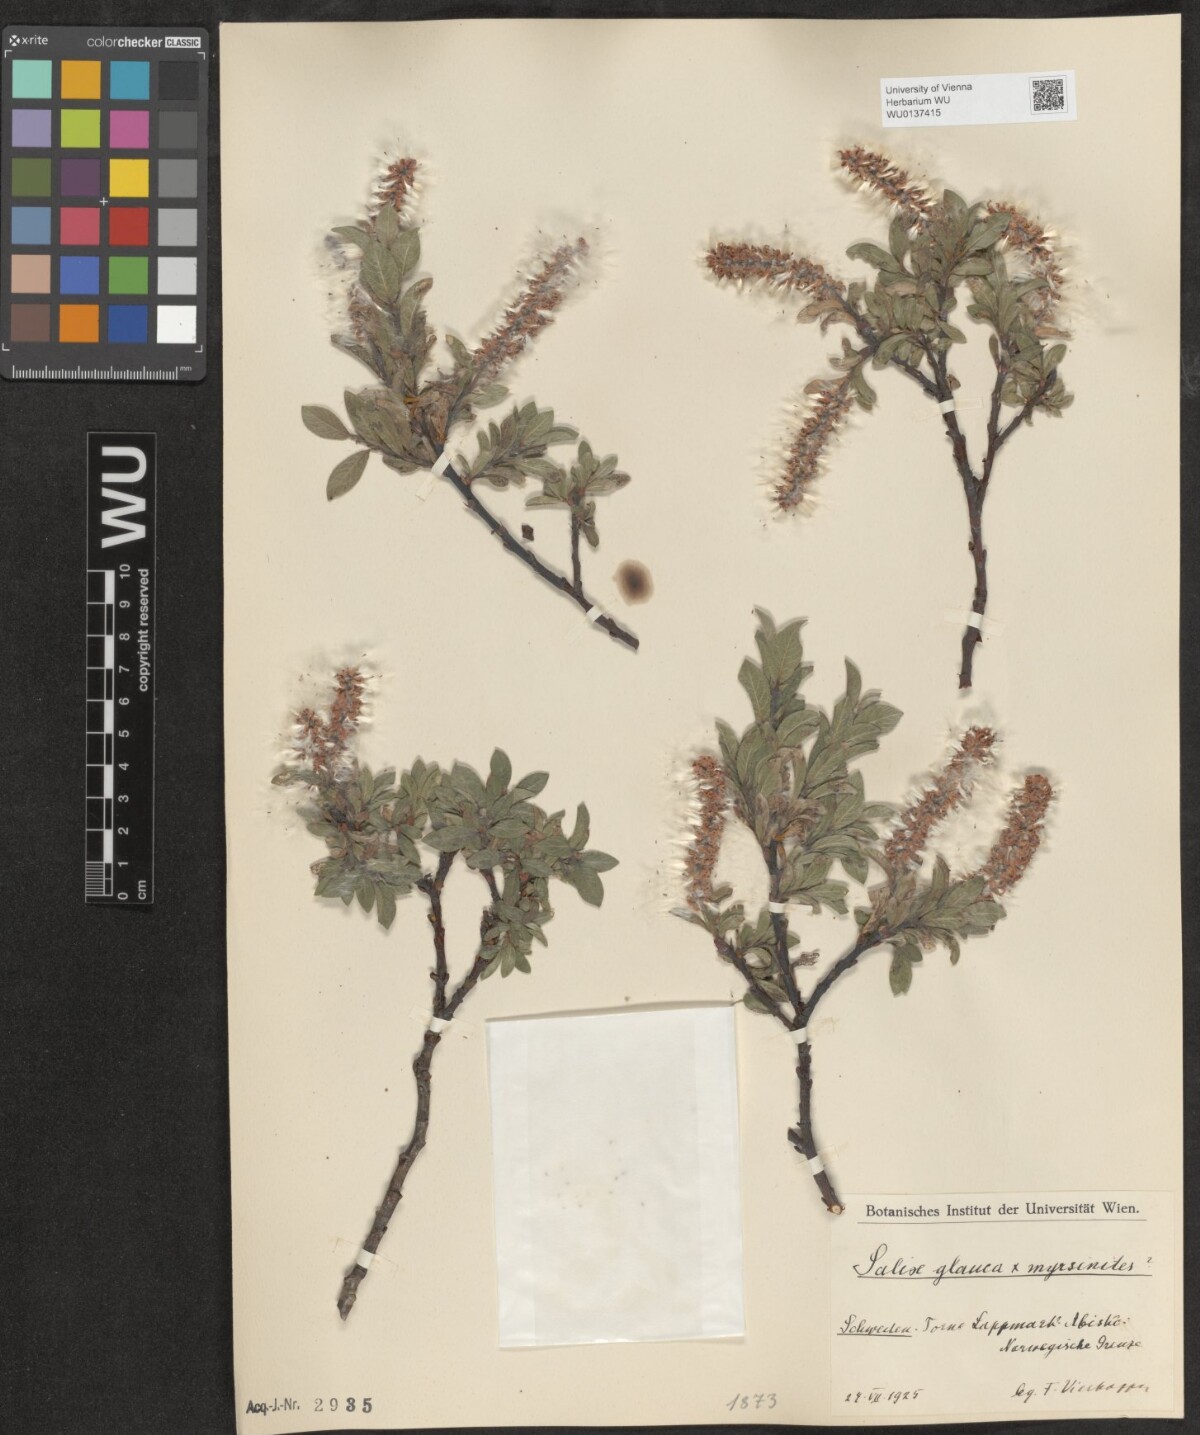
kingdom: Plantae
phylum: Tracheophyta
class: Magnoliopsida
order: Malpighiales
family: Salicaceae
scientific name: Salicaceae
